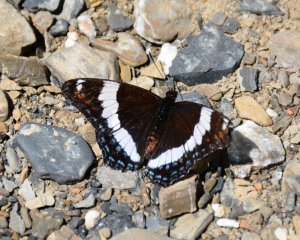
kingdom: Animalia
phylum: Arthropoda
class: Insecta
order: Lepidoptera
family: Nymphalidae
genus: Limenitis
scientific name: Limenitis arthemis
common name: Red-spotted Admiral
